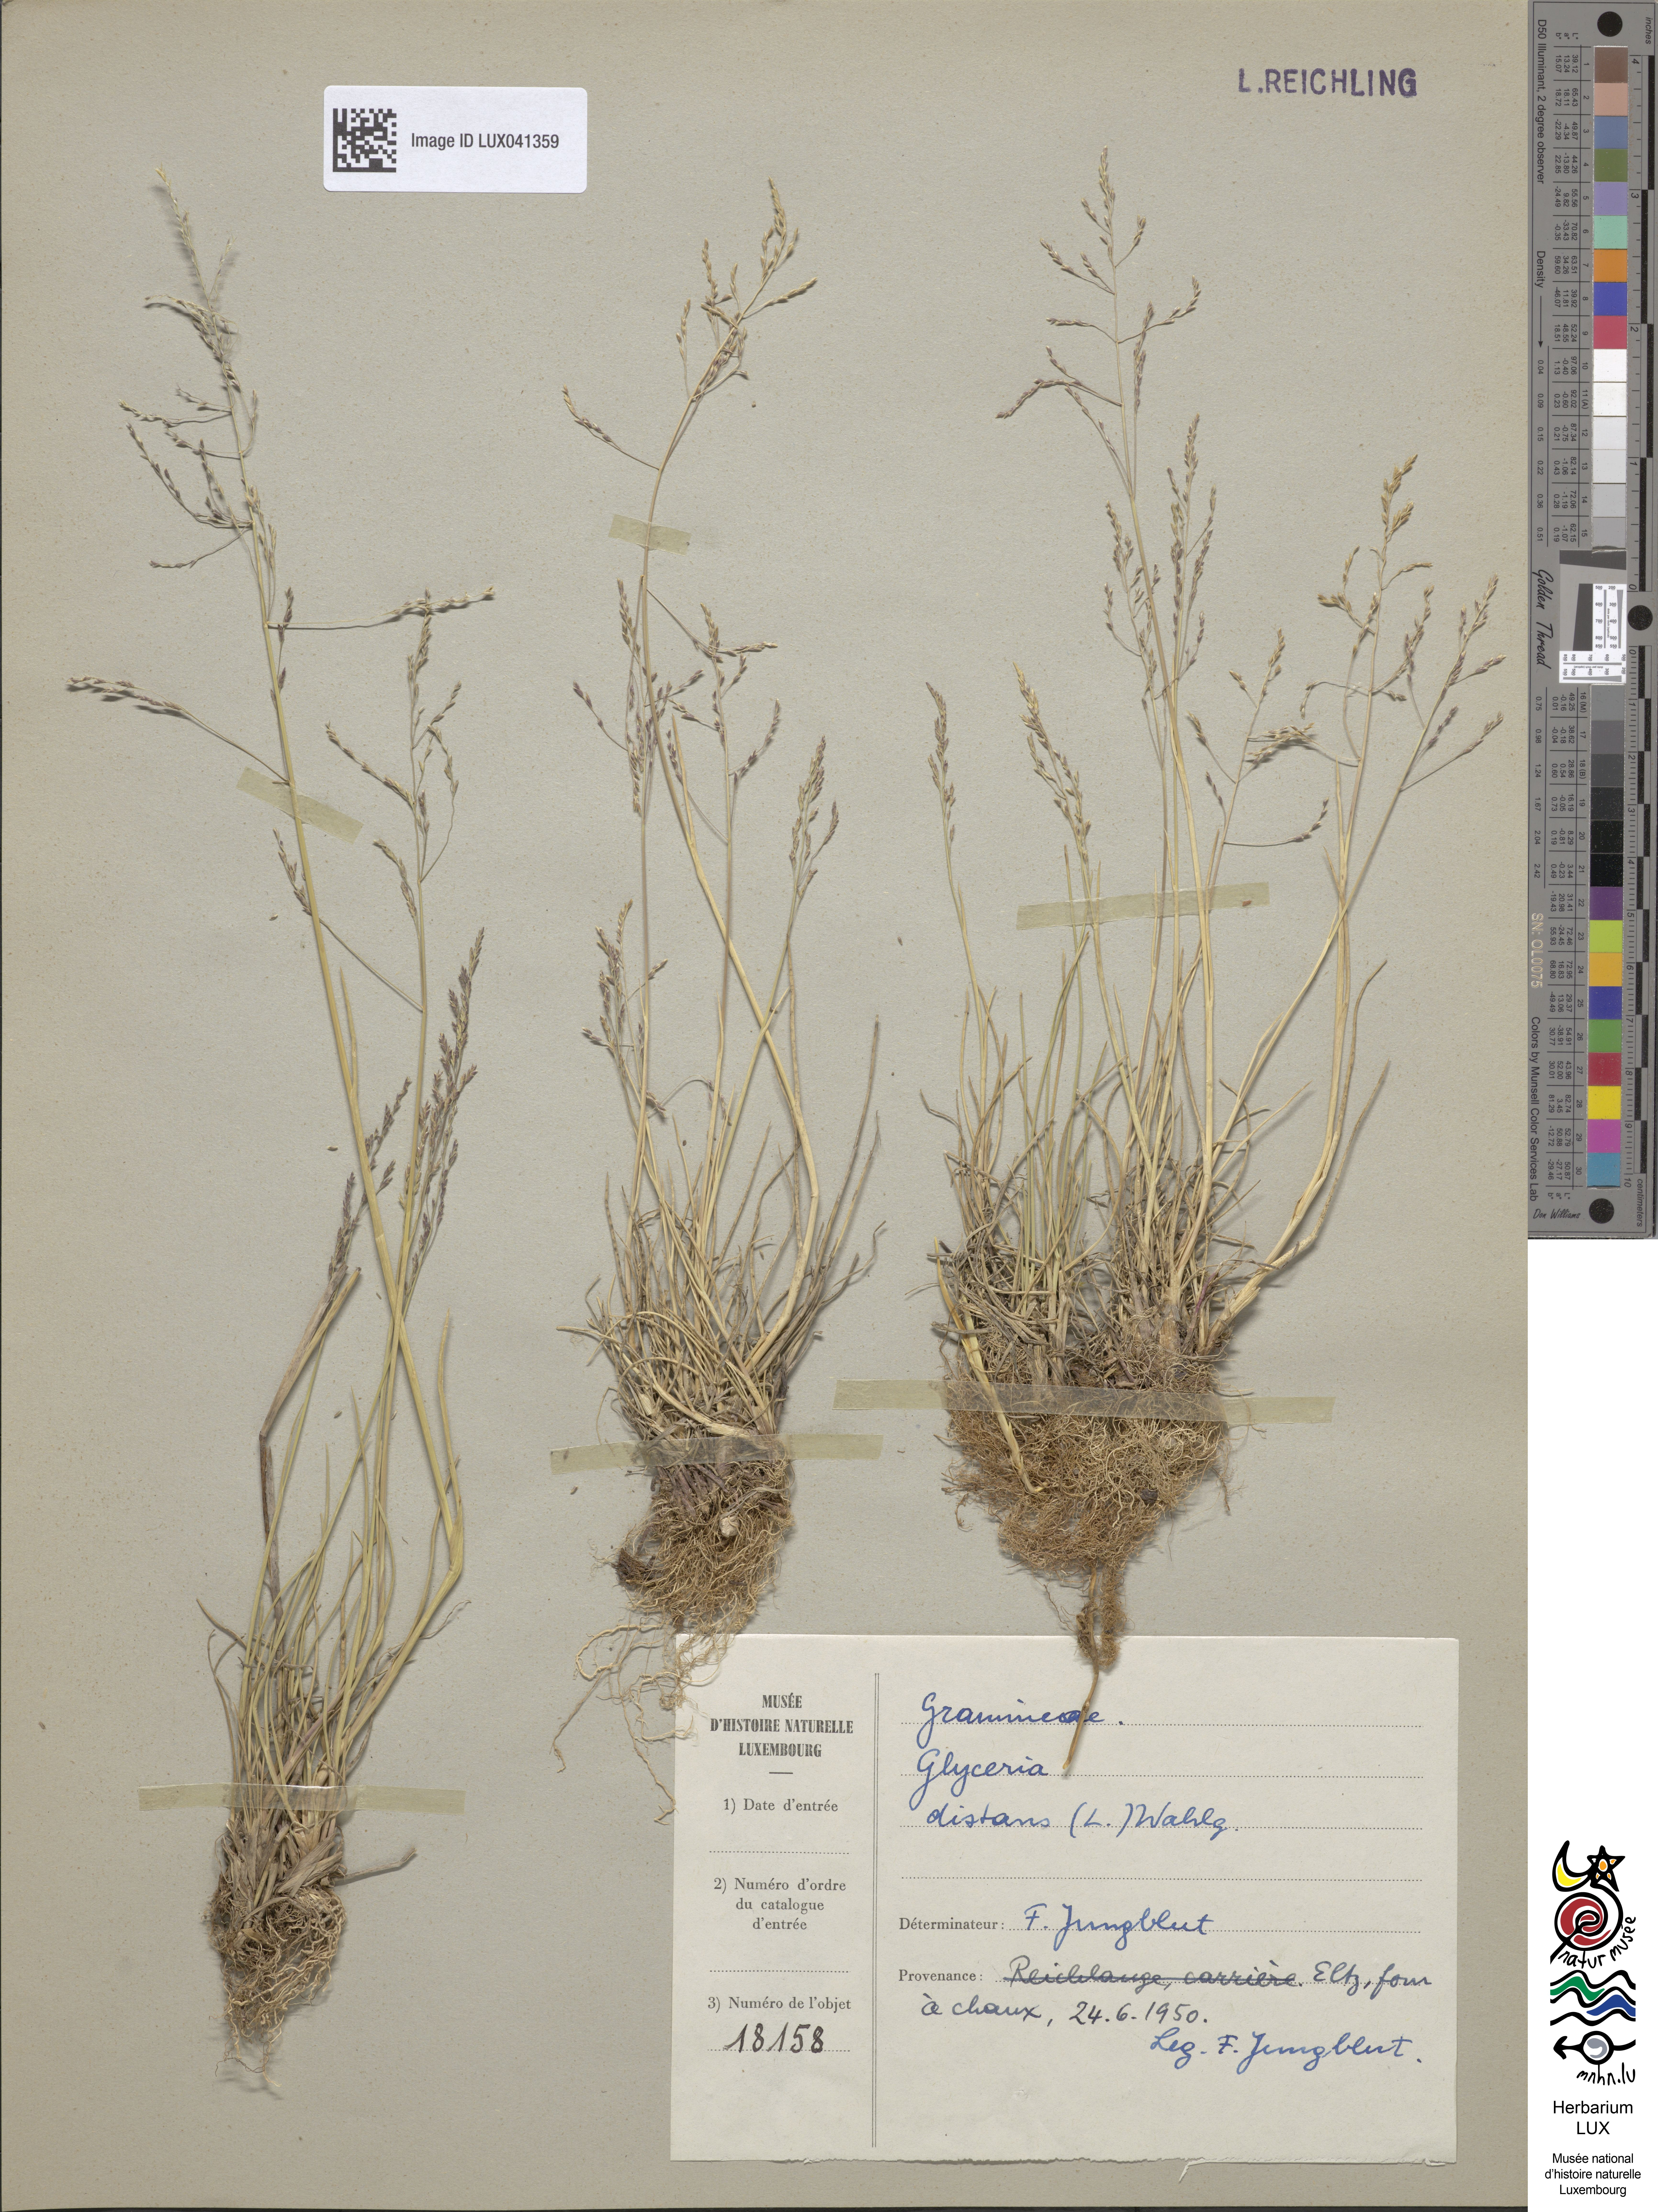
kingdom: Plantae
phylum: Tracheophyta
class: Liliopsida
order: Poales
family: Poaceae
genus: Puccinellia
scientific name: Puccinellia distans
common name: Weeping alkaligrass
